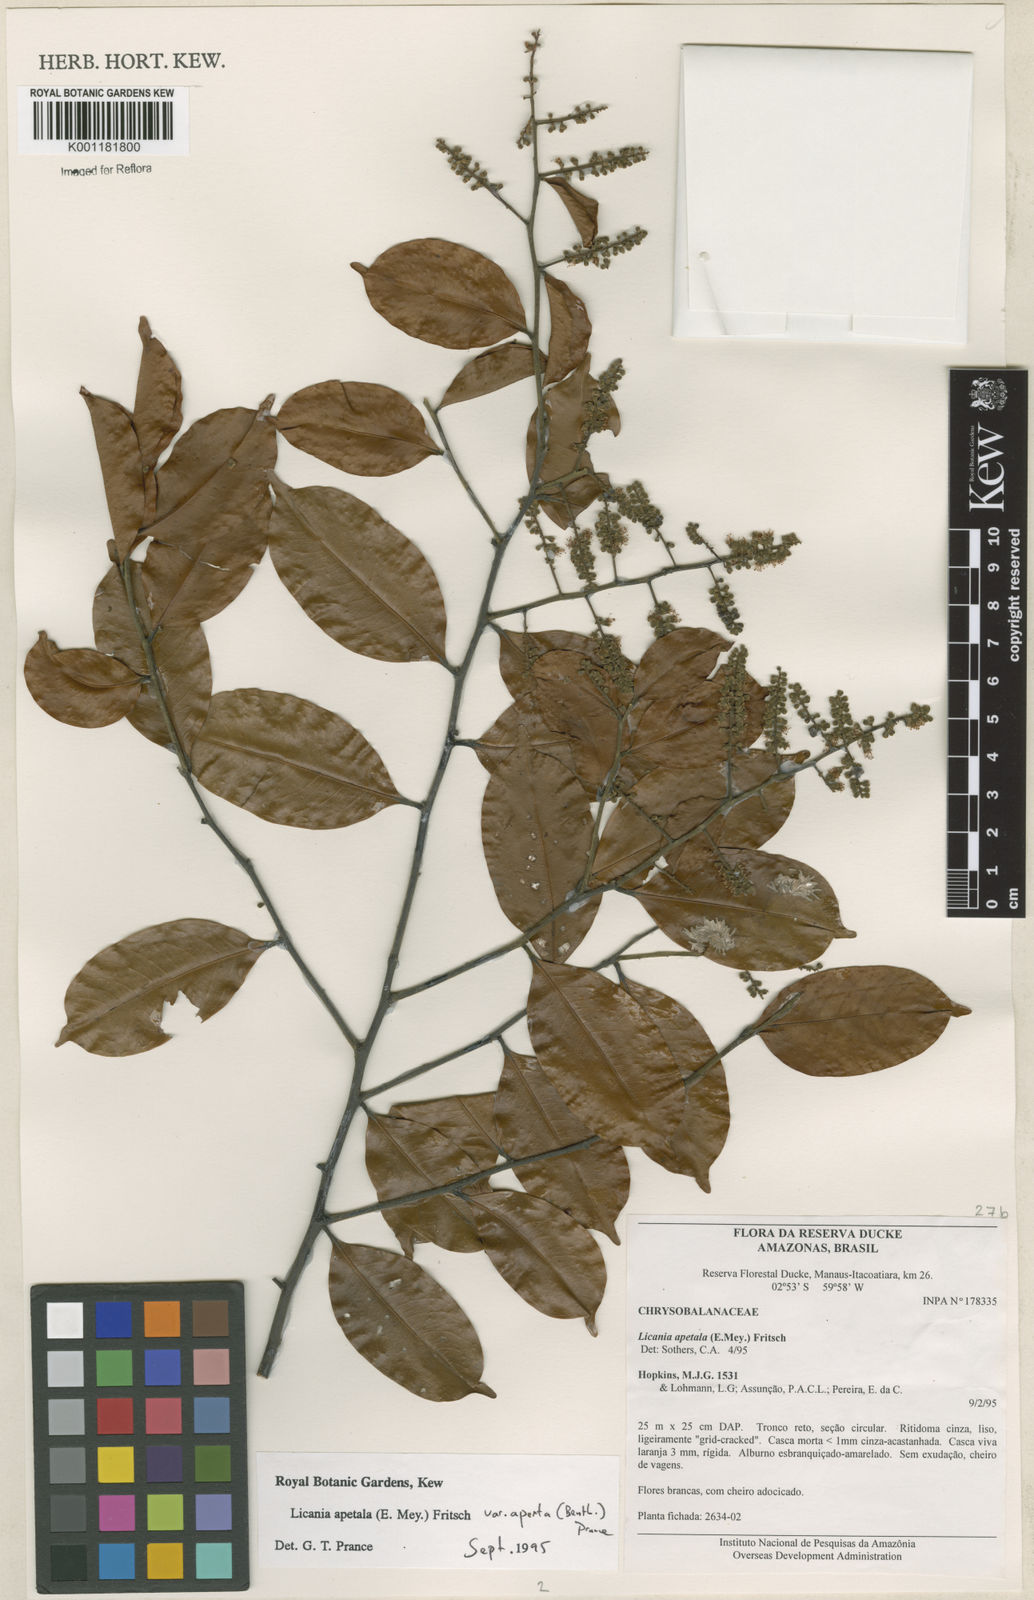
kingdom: Plantae
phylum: Tracheophyta
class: Magnoliopsida
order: Malpighiales
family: Chrysobalanaceae
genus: Leptobalanus
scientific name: Leptobalanus apetalus
